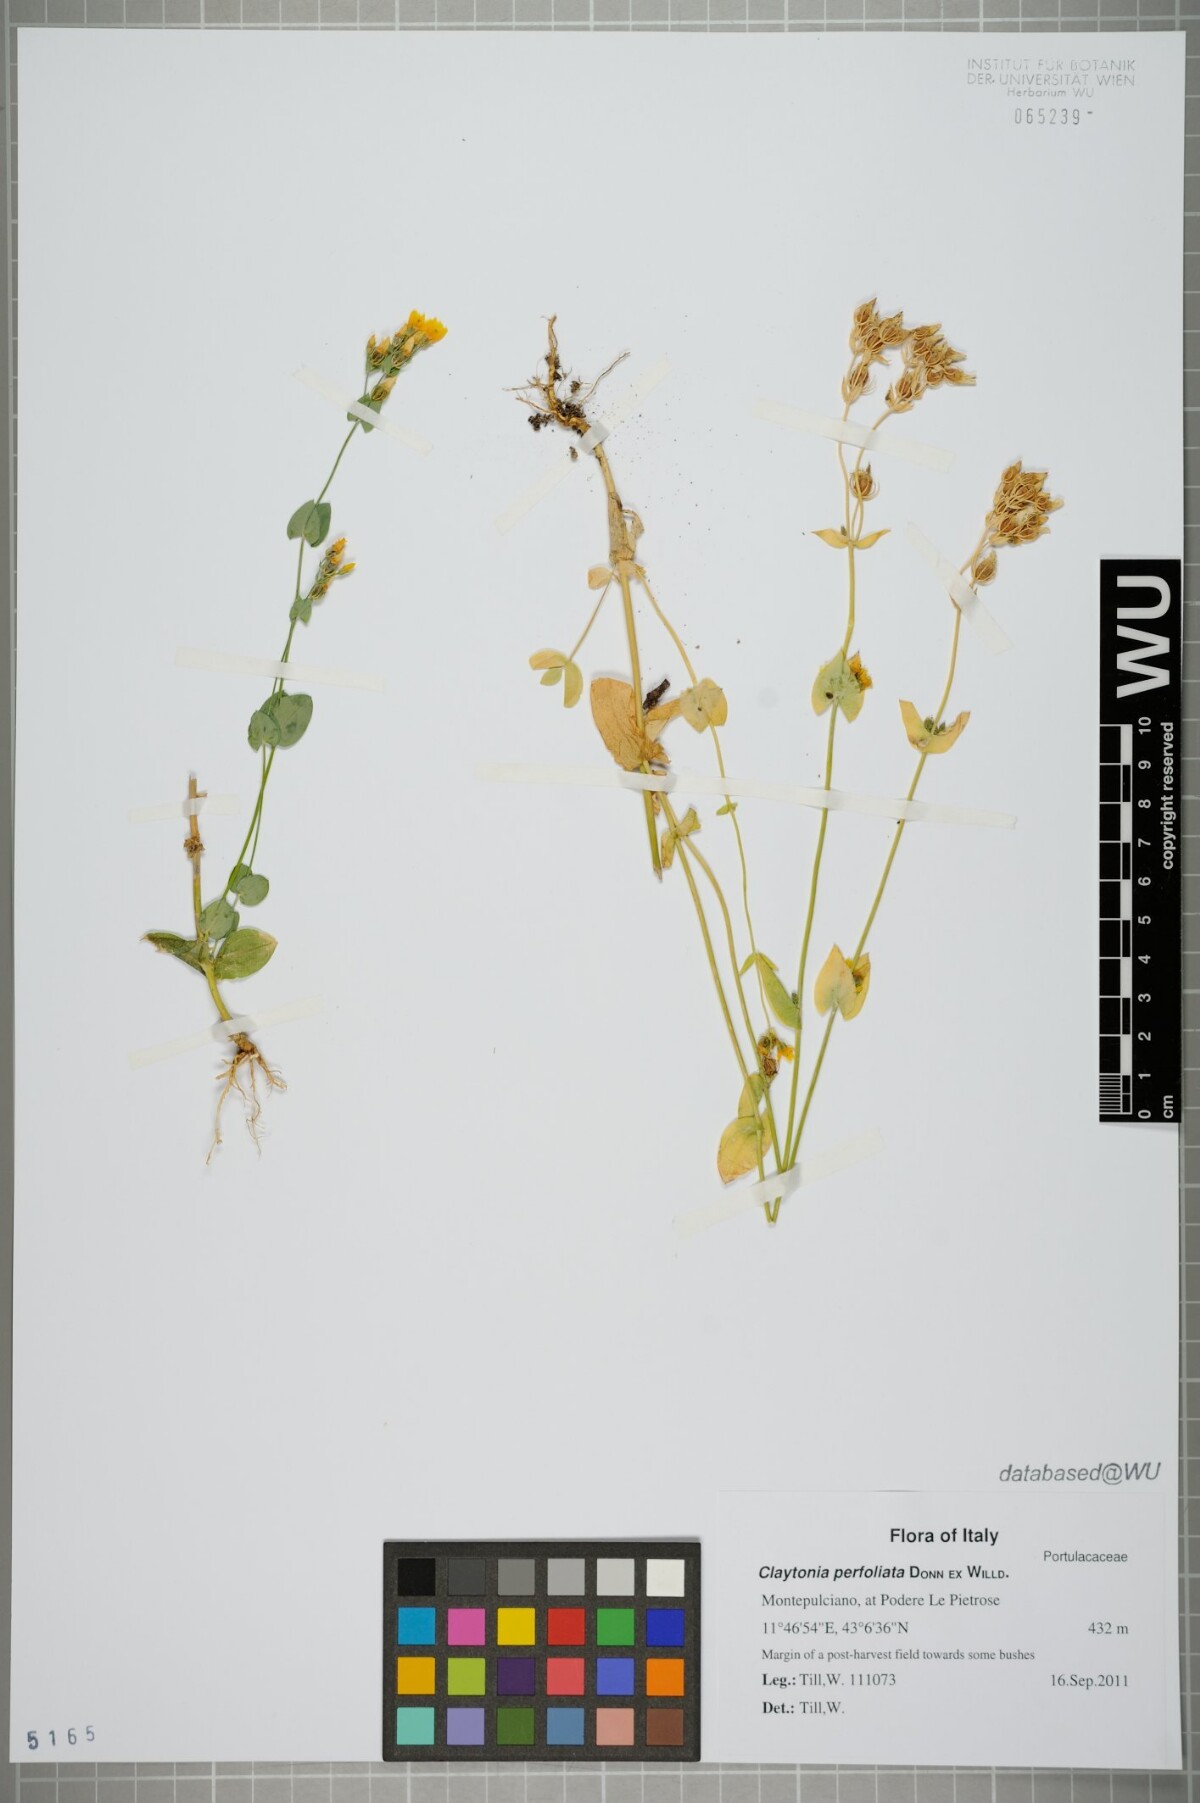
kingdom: Plantae
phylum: Tracheophyta
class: Magnoliopsida
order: Caryophyllales
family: Montiaceae
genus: Claytonia
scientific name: Claytonia perfoliata
